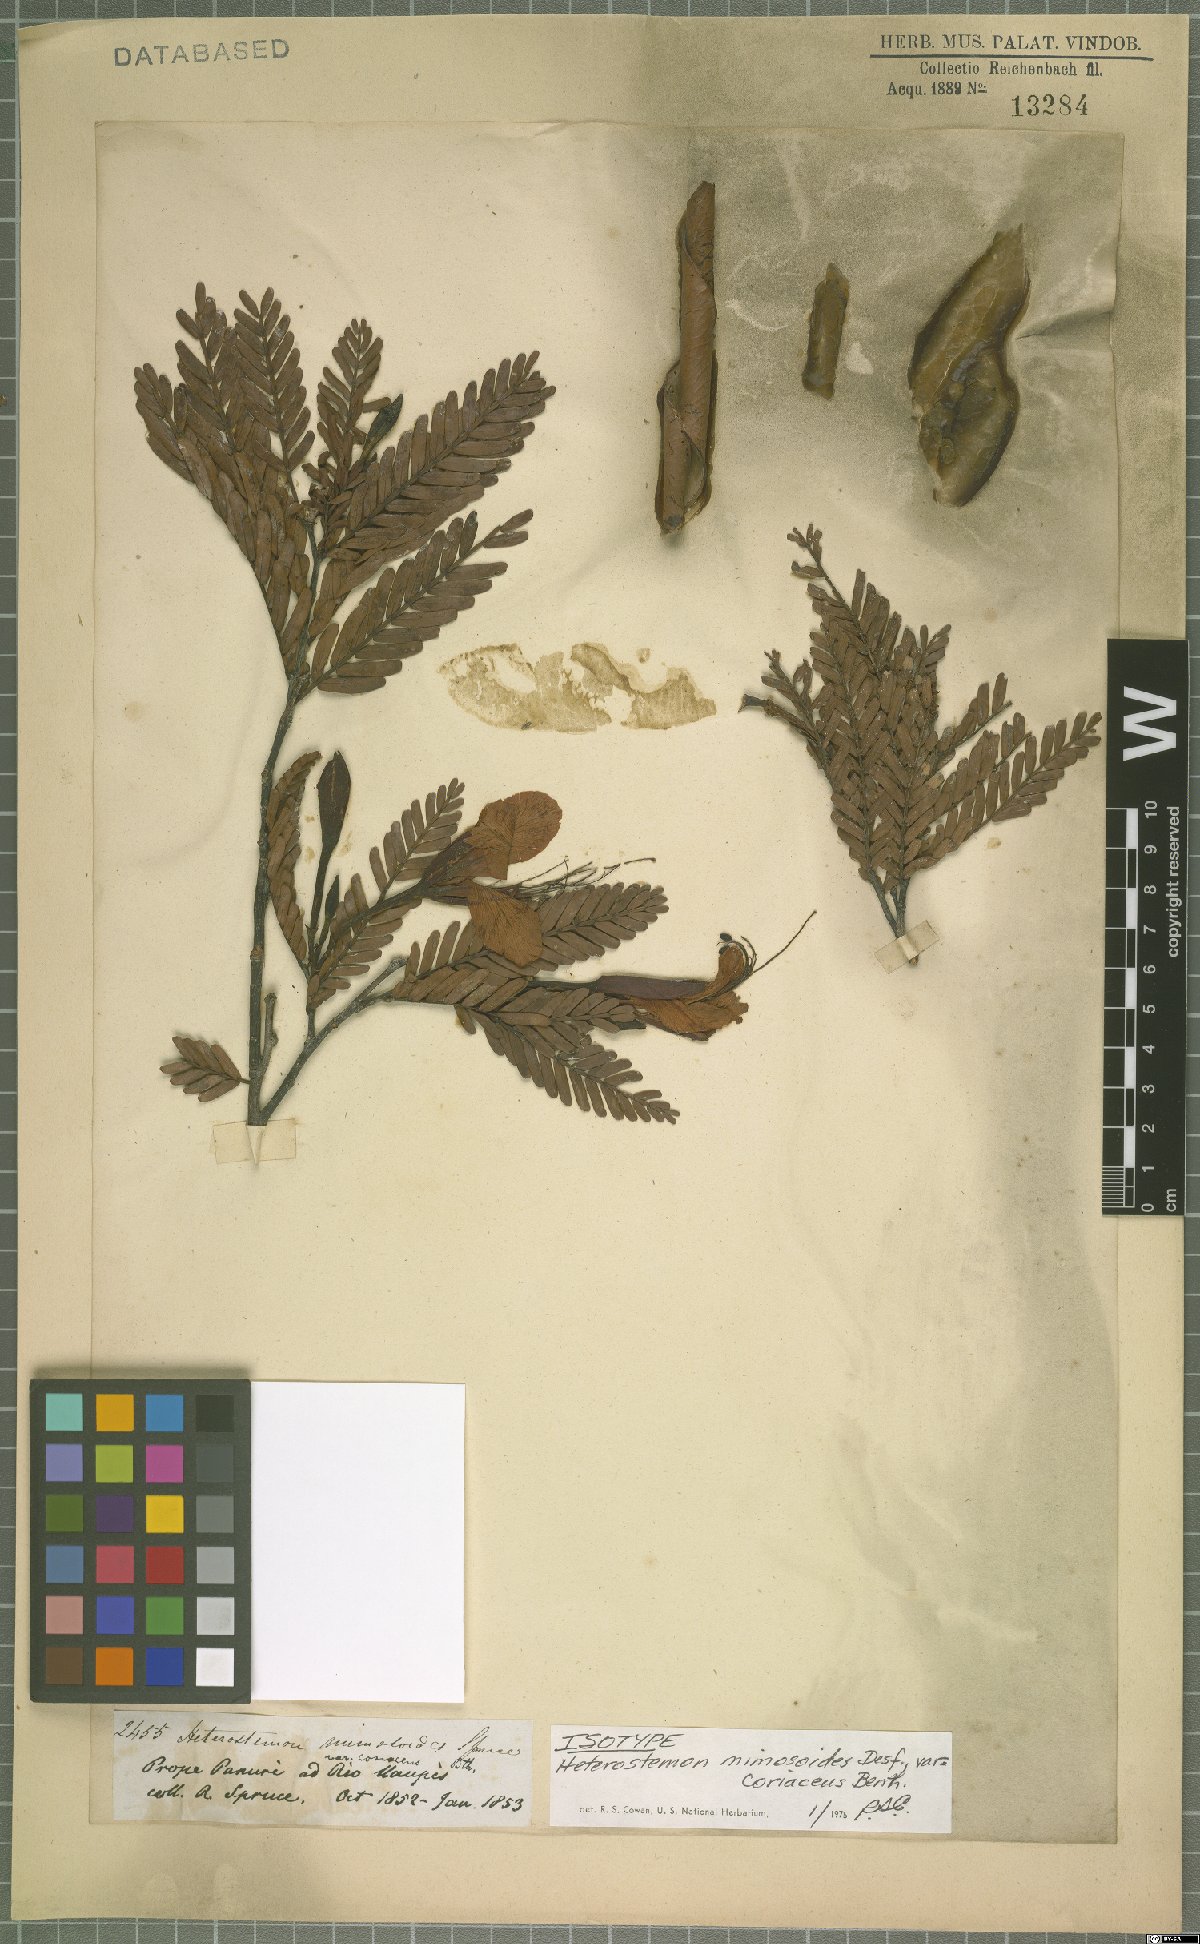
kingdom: Plantae
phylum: Tracheophyta
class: Magnoliopsida
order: Fabales
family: Fabaceae
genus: Heterostemon
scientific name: Heterostemon mimosoides
